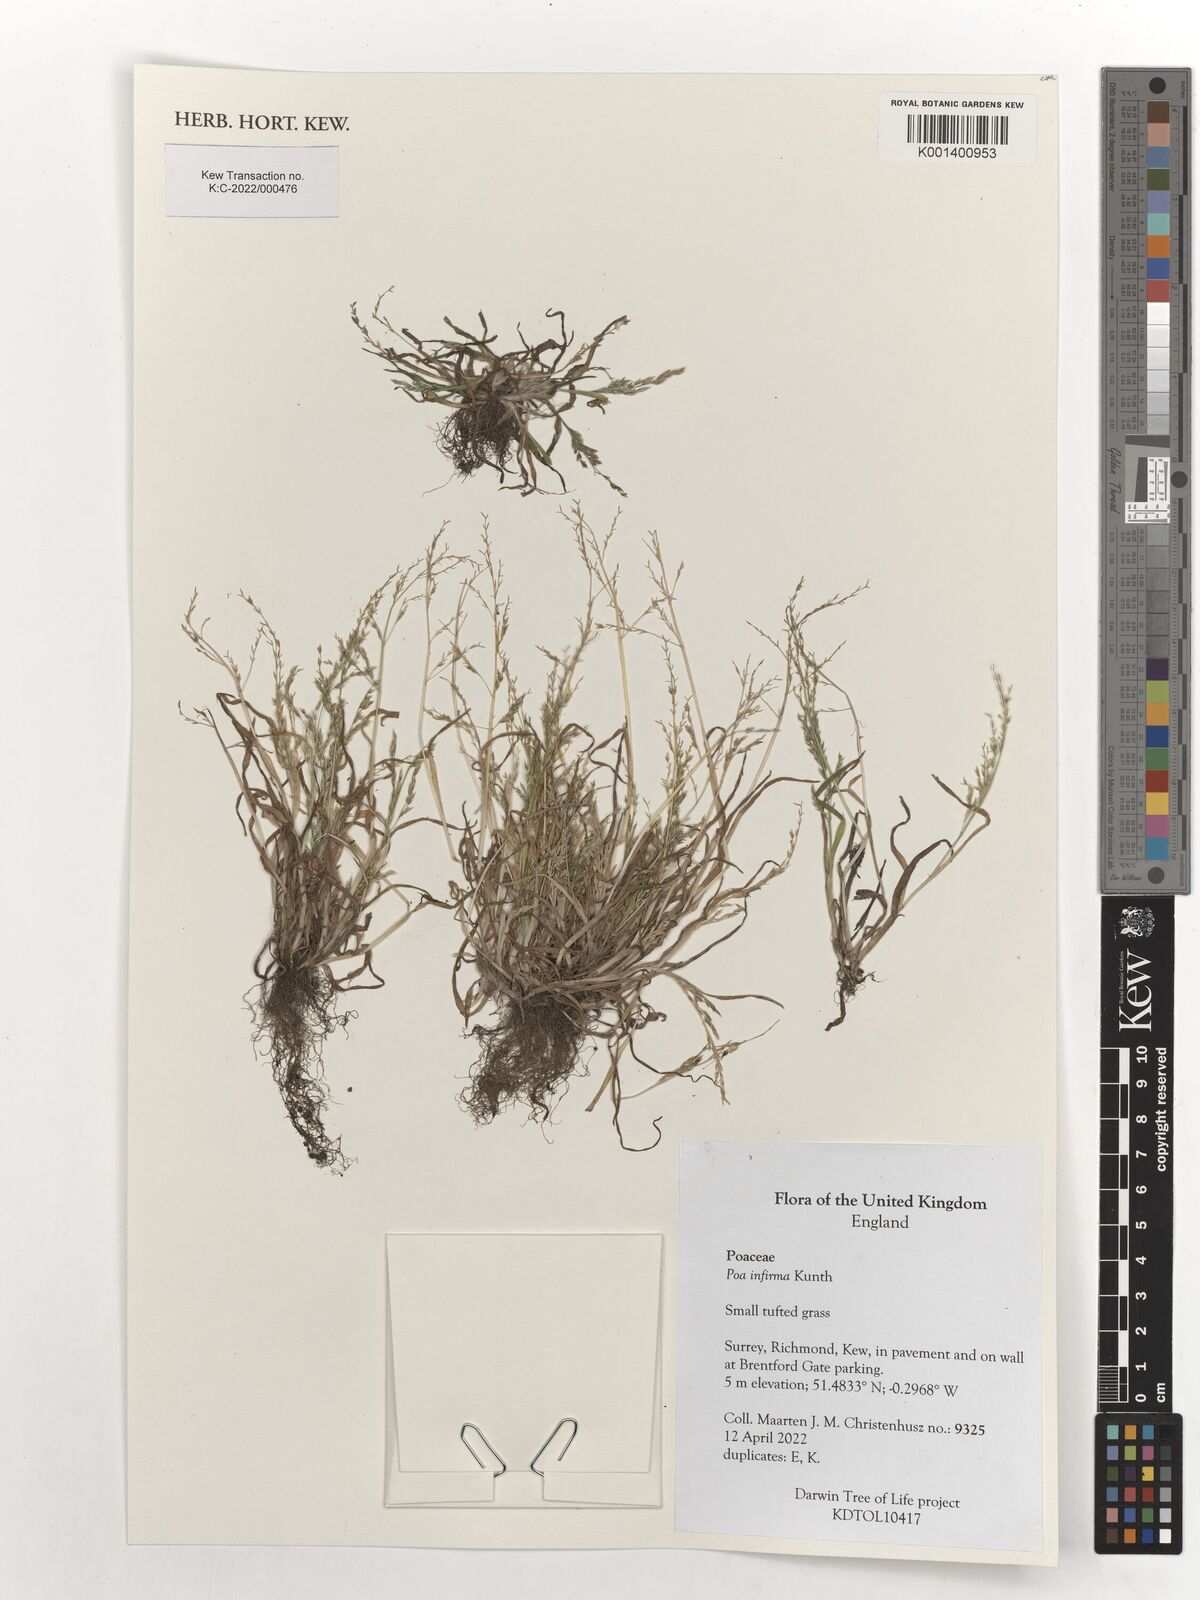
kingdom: Plantae
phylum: Tracheophyta
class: Liliopsida
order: Poales
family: Poaceae
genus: Poa
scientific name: Poa infirma
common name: Weak bluegrass
